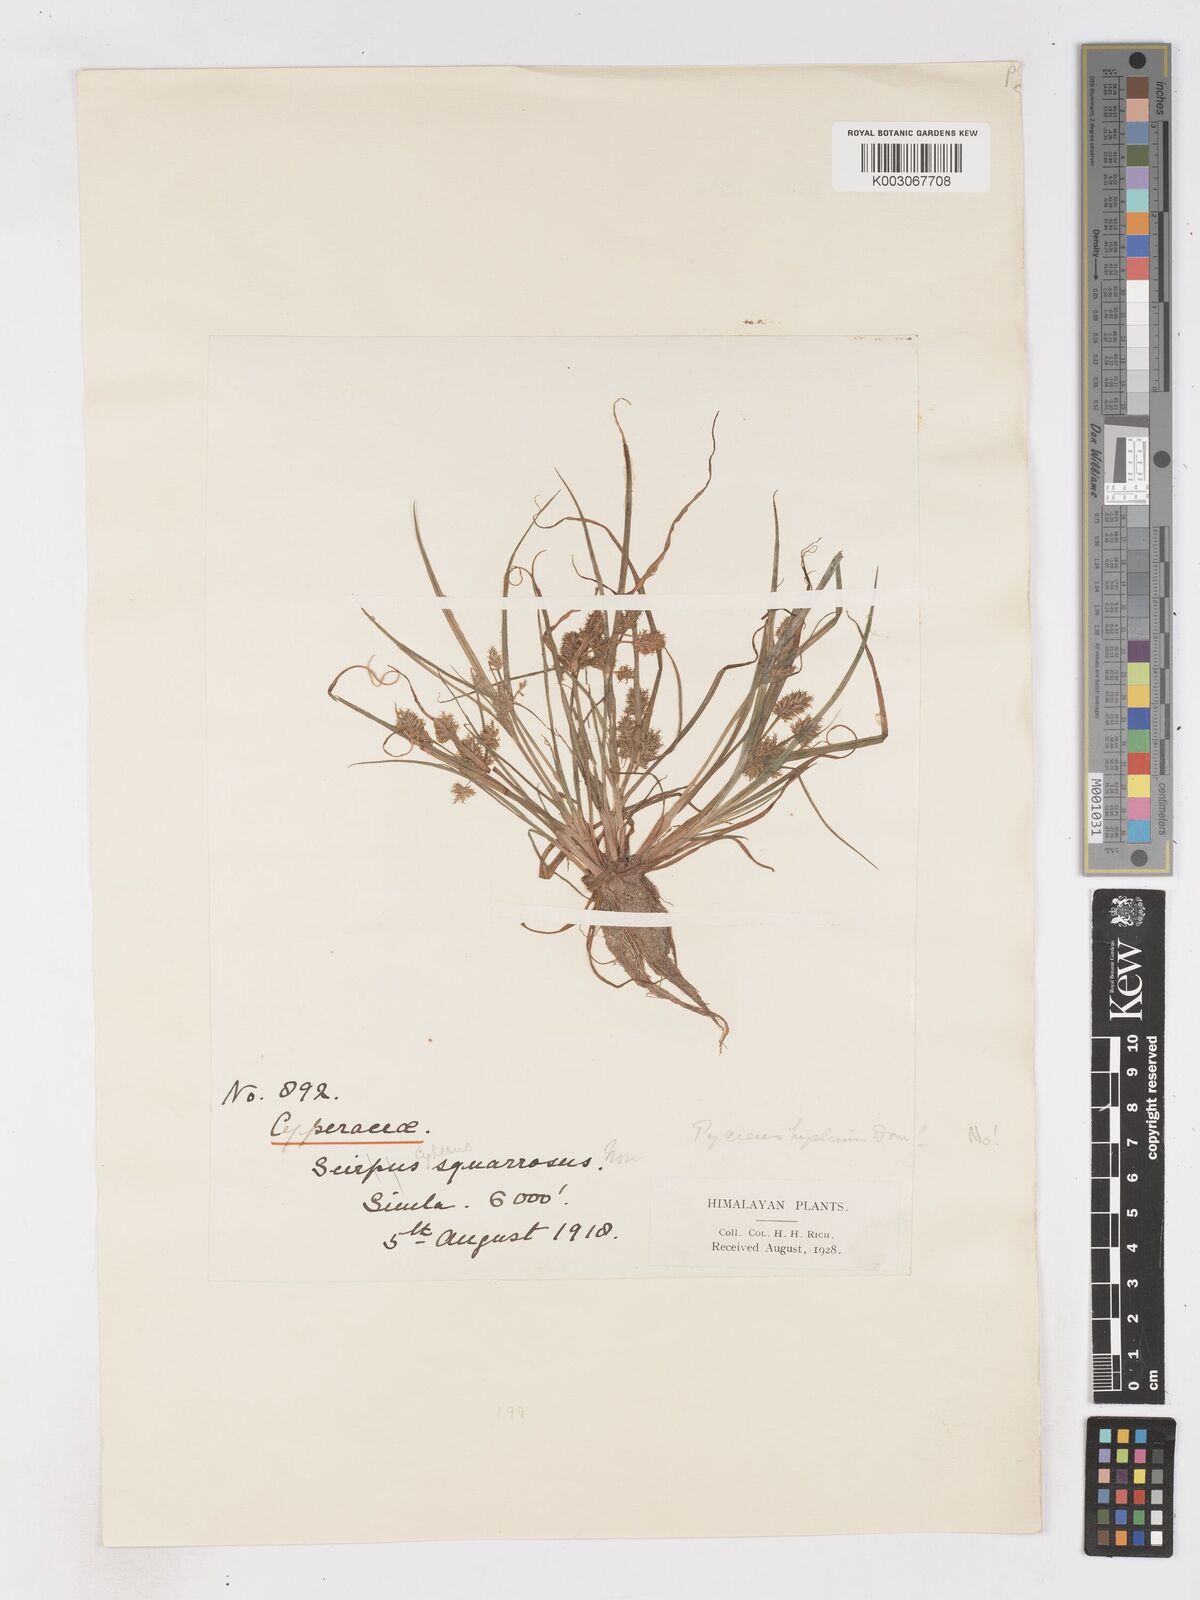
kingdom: Plantae
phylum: Tracheophyta
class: Liliopsida
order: Poales
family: Cyperaceae
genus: Cyperus
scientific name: Cyperus squarrosus
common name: Awned cyperus
